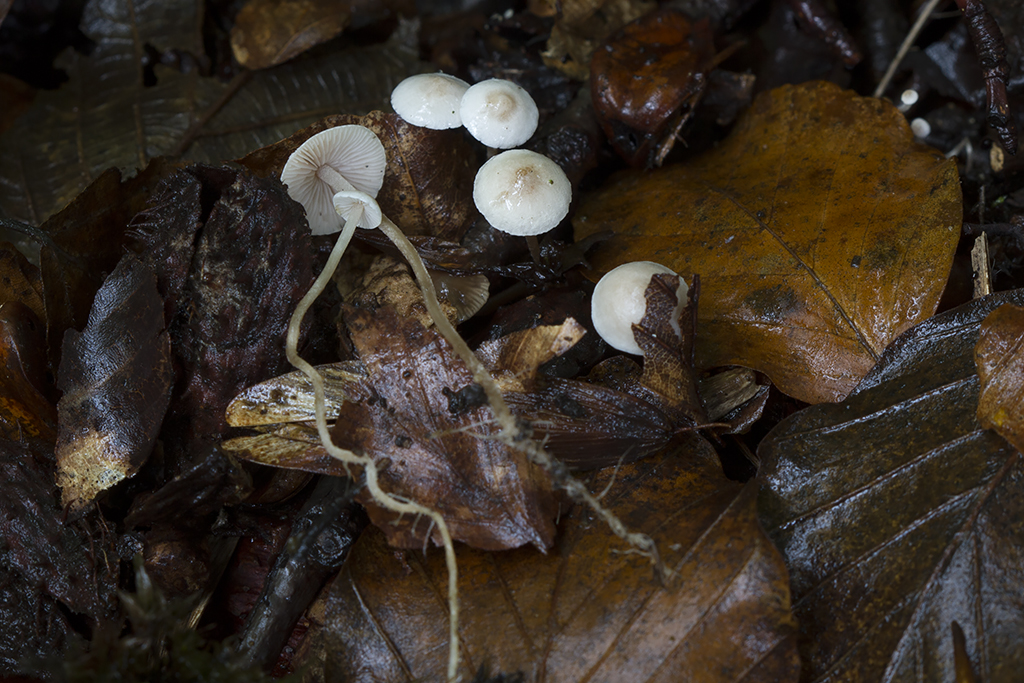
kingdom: Fungi
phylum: Basidiomycota
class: Agaricomycetes
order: Agaricales
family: Tricholomataceae
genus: Collybia
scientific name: Collybia cookei
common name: gulknoldet lighat
